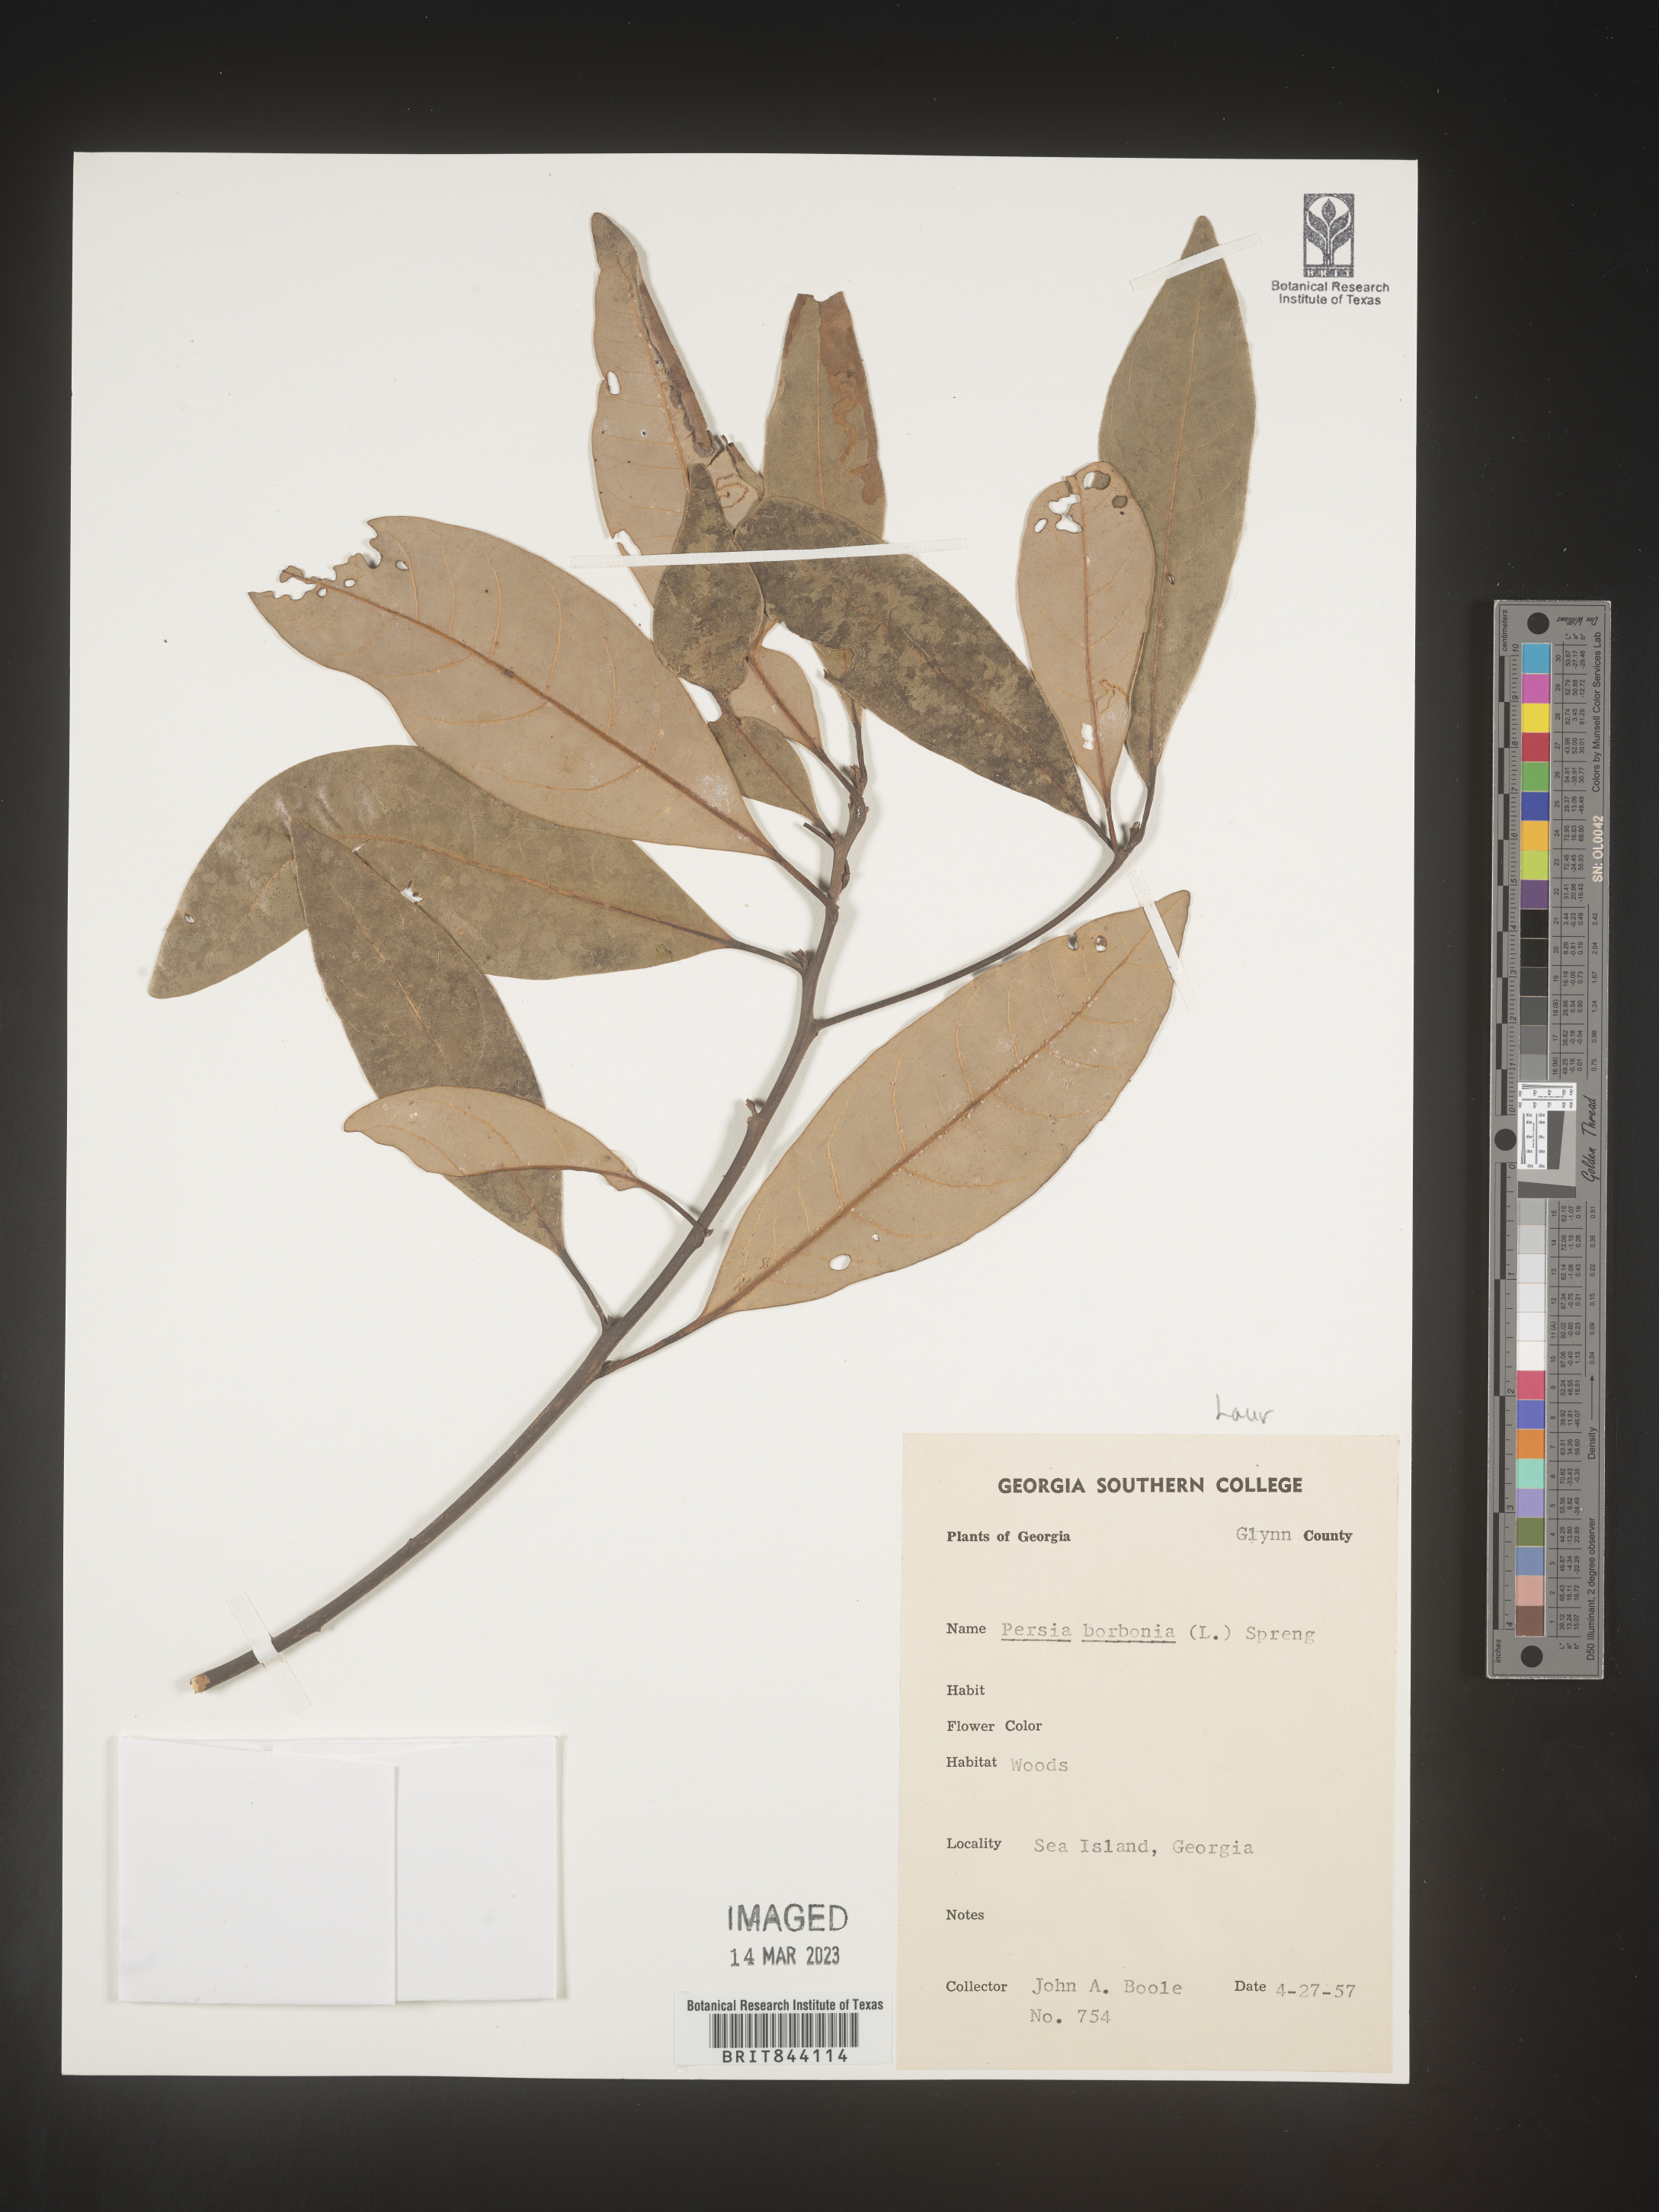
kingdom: Plantae
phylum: Tracheophyta
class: Magnoliopsida
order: Laurales
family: Lauraceae
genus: Persea
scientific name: Persea borbonia
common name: Redbay
